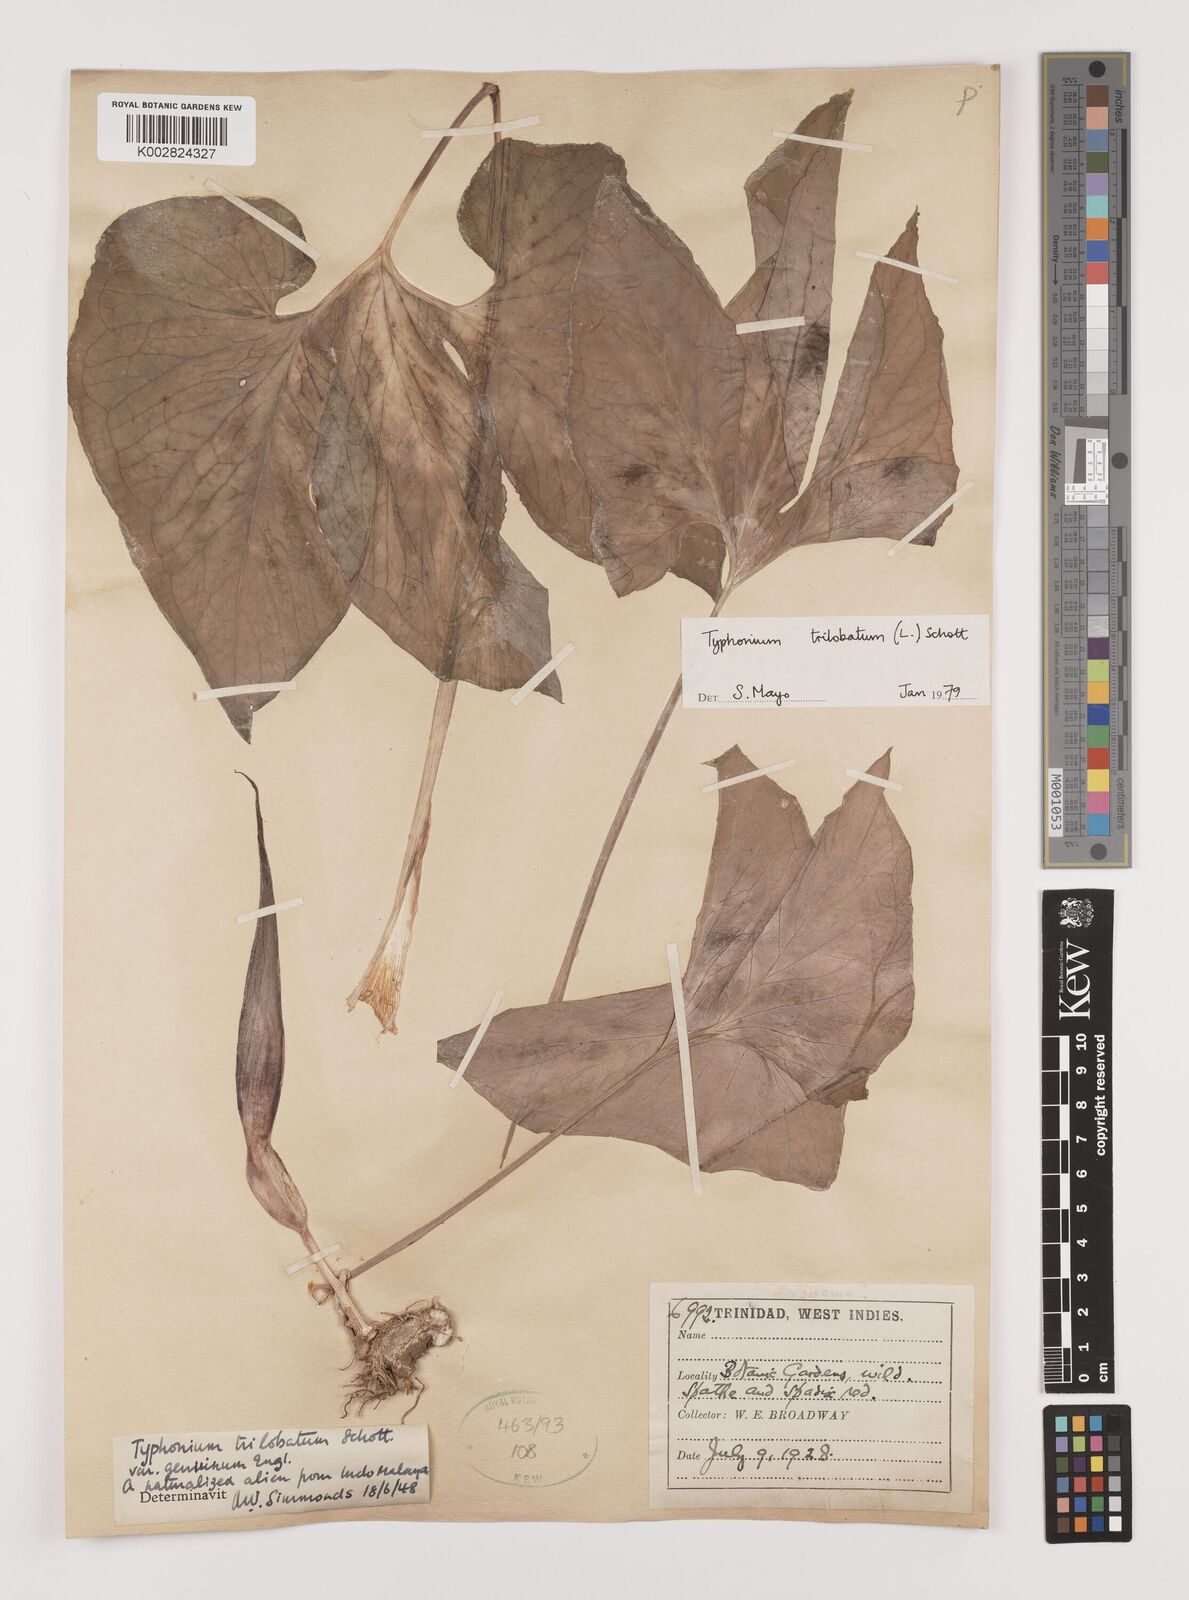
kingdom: Plantae
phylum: Tracheophyta
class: Liliopsida
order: Alismatales
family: Araceae
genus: Typhonium
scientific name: Typhonium trilobatum
